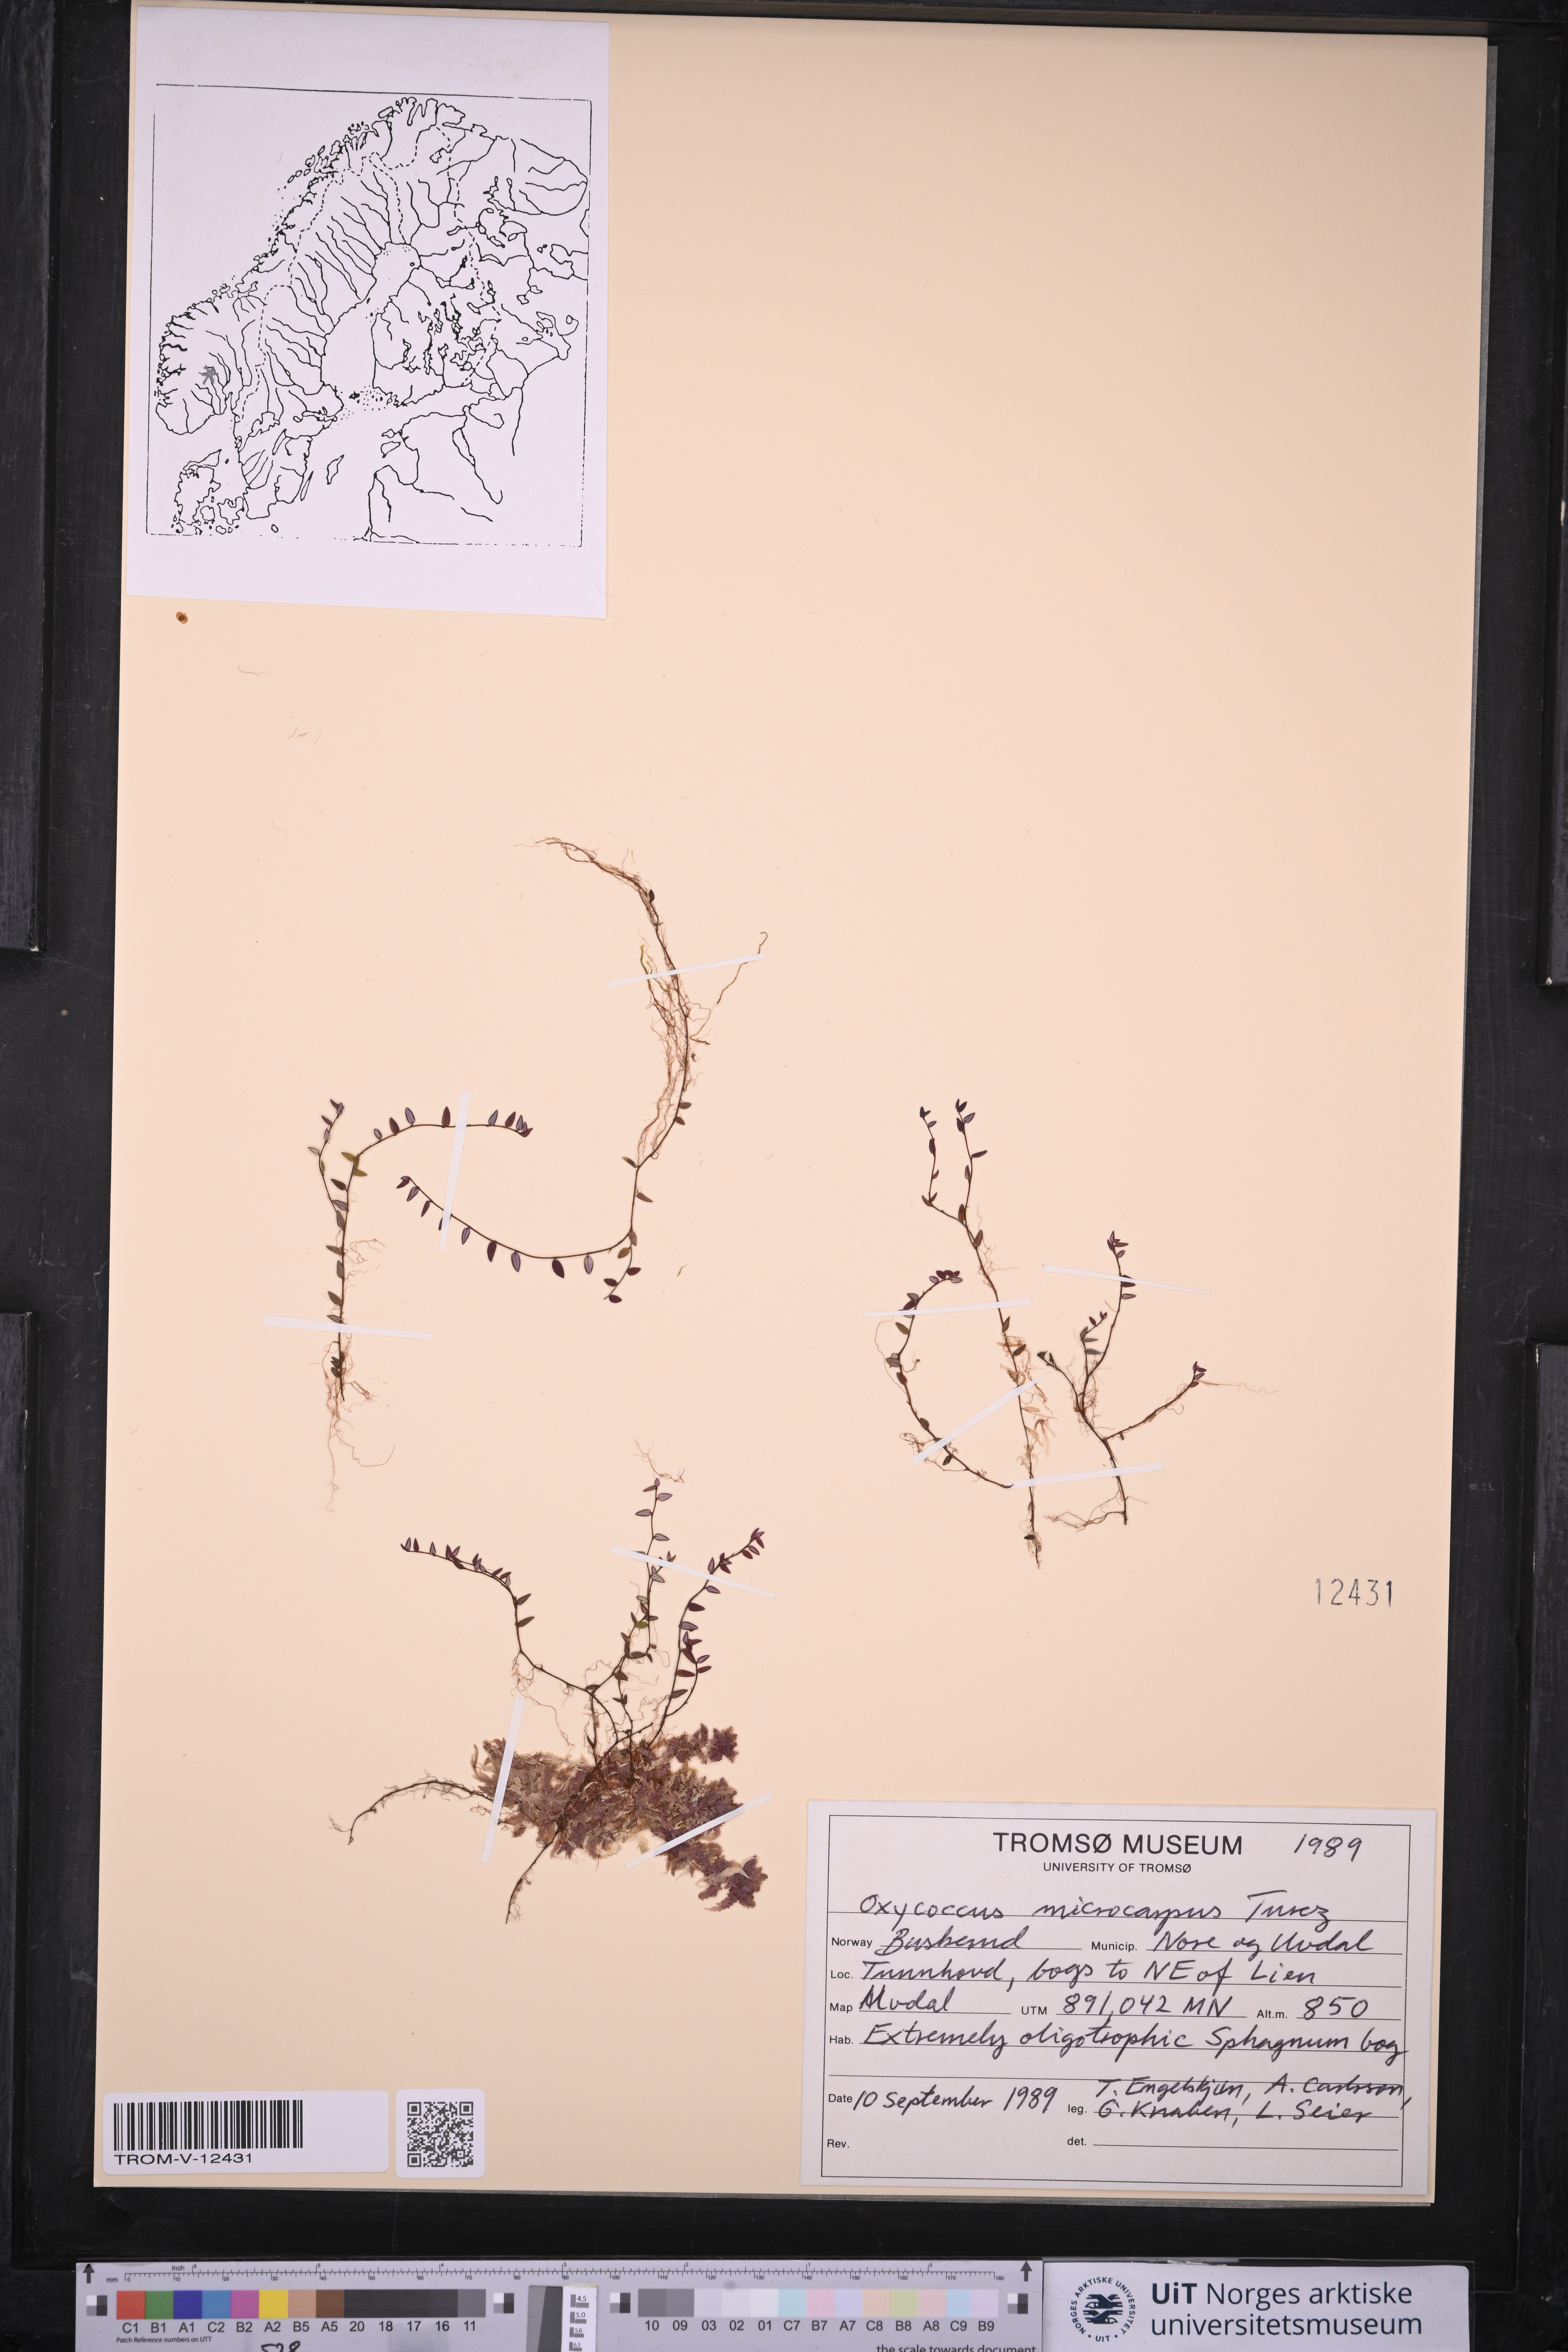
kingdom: Plantae
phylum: Tracheophyta
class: Magnoliopsida
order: Ericales
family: Ericaceae
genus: Vaccinium
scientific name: Vaccinium microcarpum
